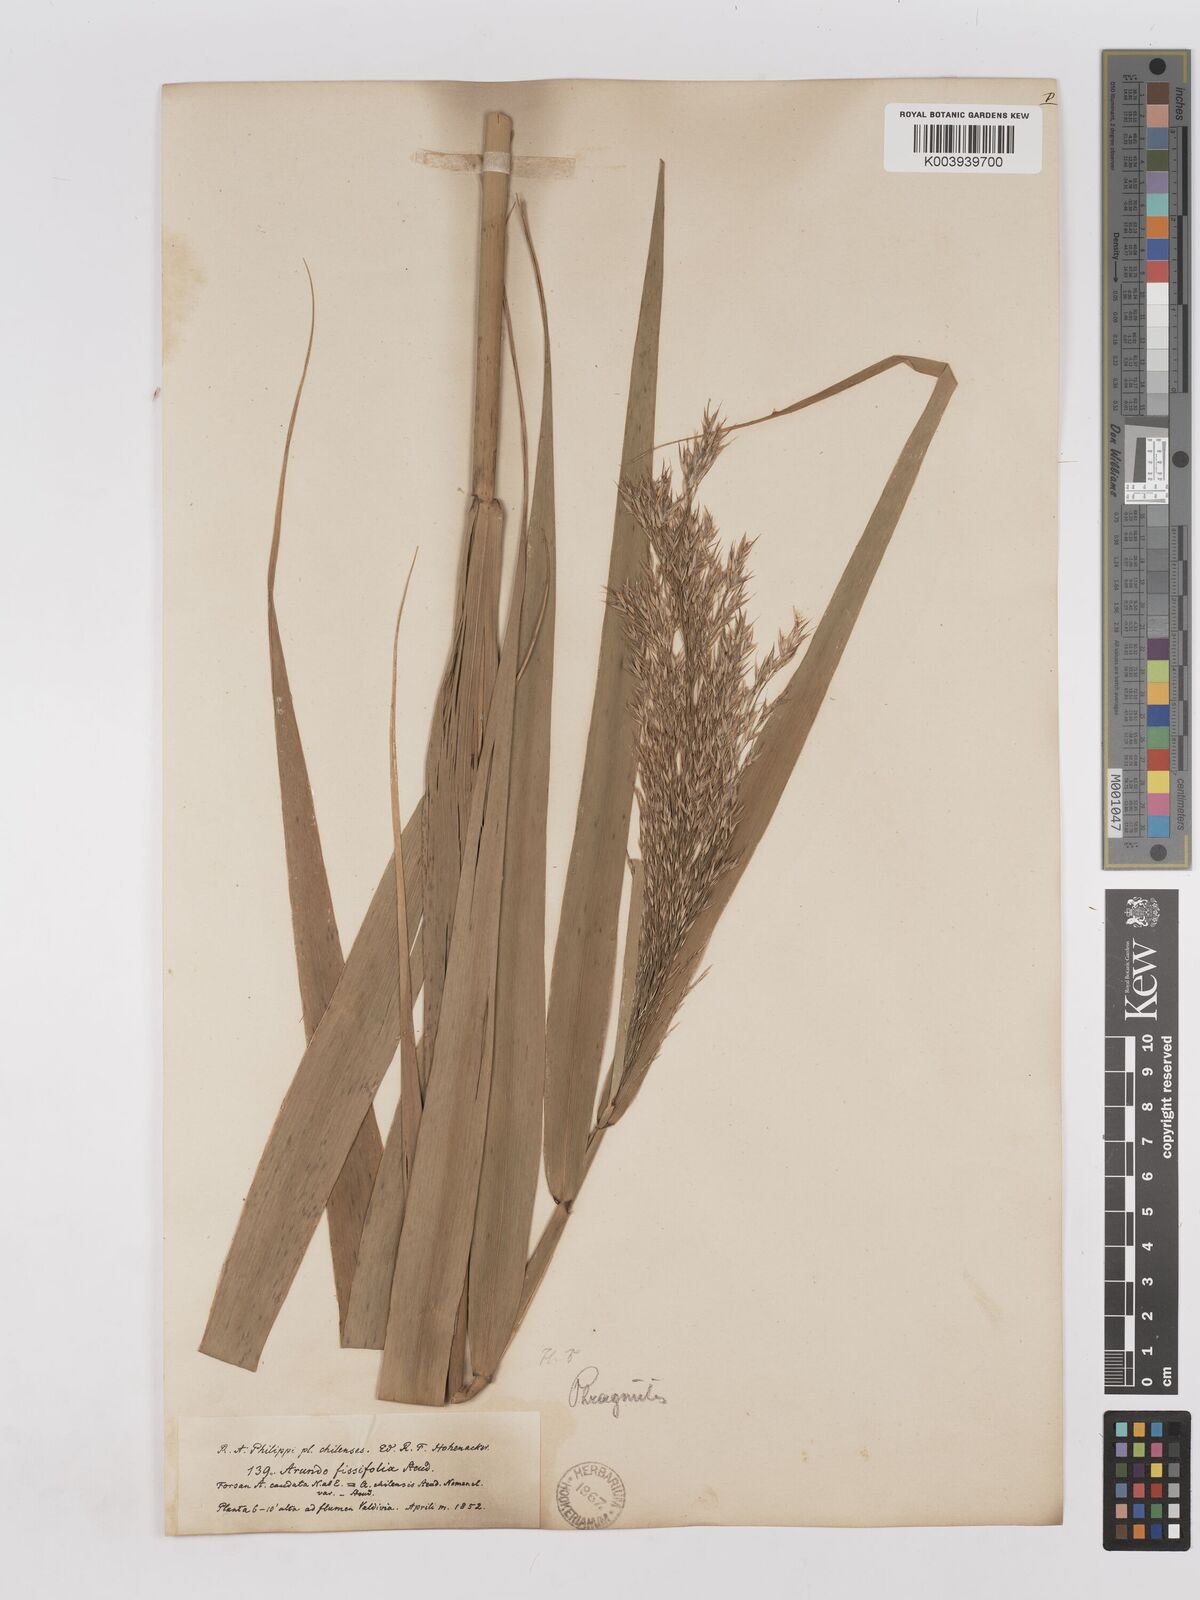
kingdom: Plantae
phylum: Tracheophyta
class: Liliopsida
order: Poales
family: Poaceae
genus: Phragmites
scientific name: Phragmites australis
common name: Common reed
